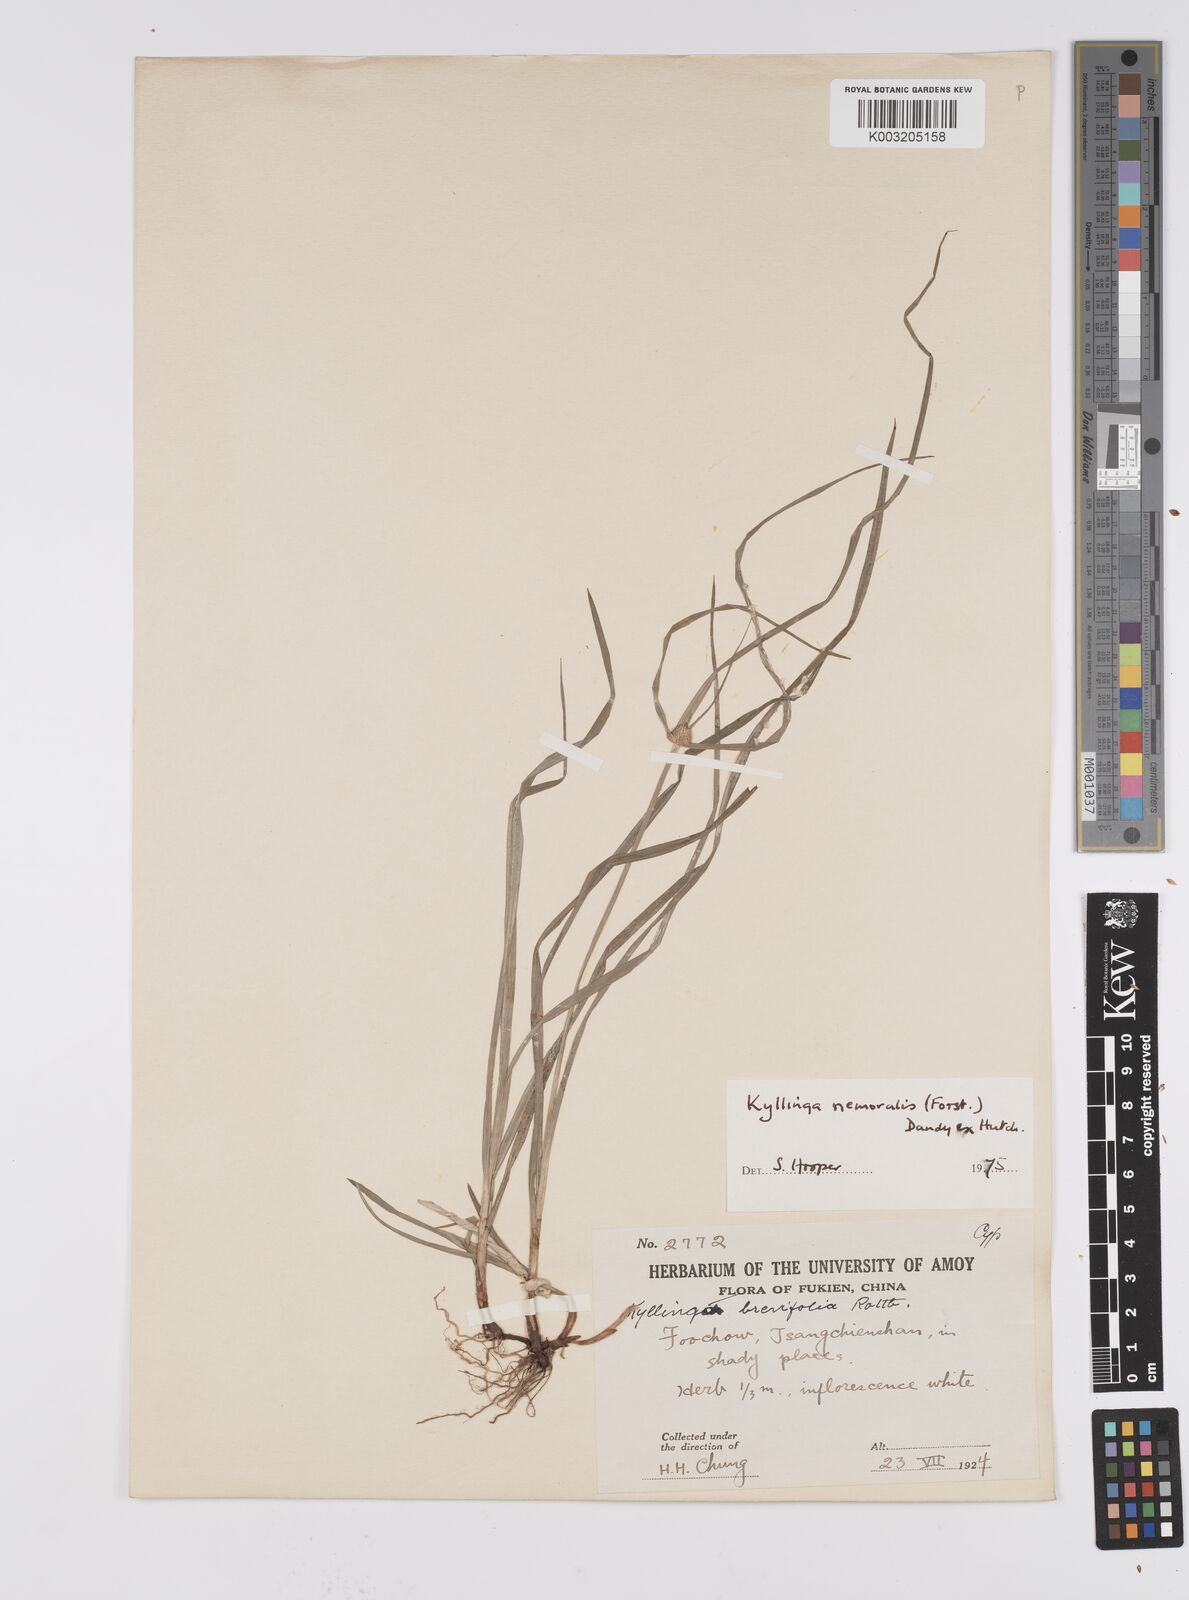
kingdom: Plantae
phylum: Tracheophyta
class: Liliopsida
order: Poales
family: Cyperaceae
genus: Cyperus
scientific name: Cyperus nemoralis
